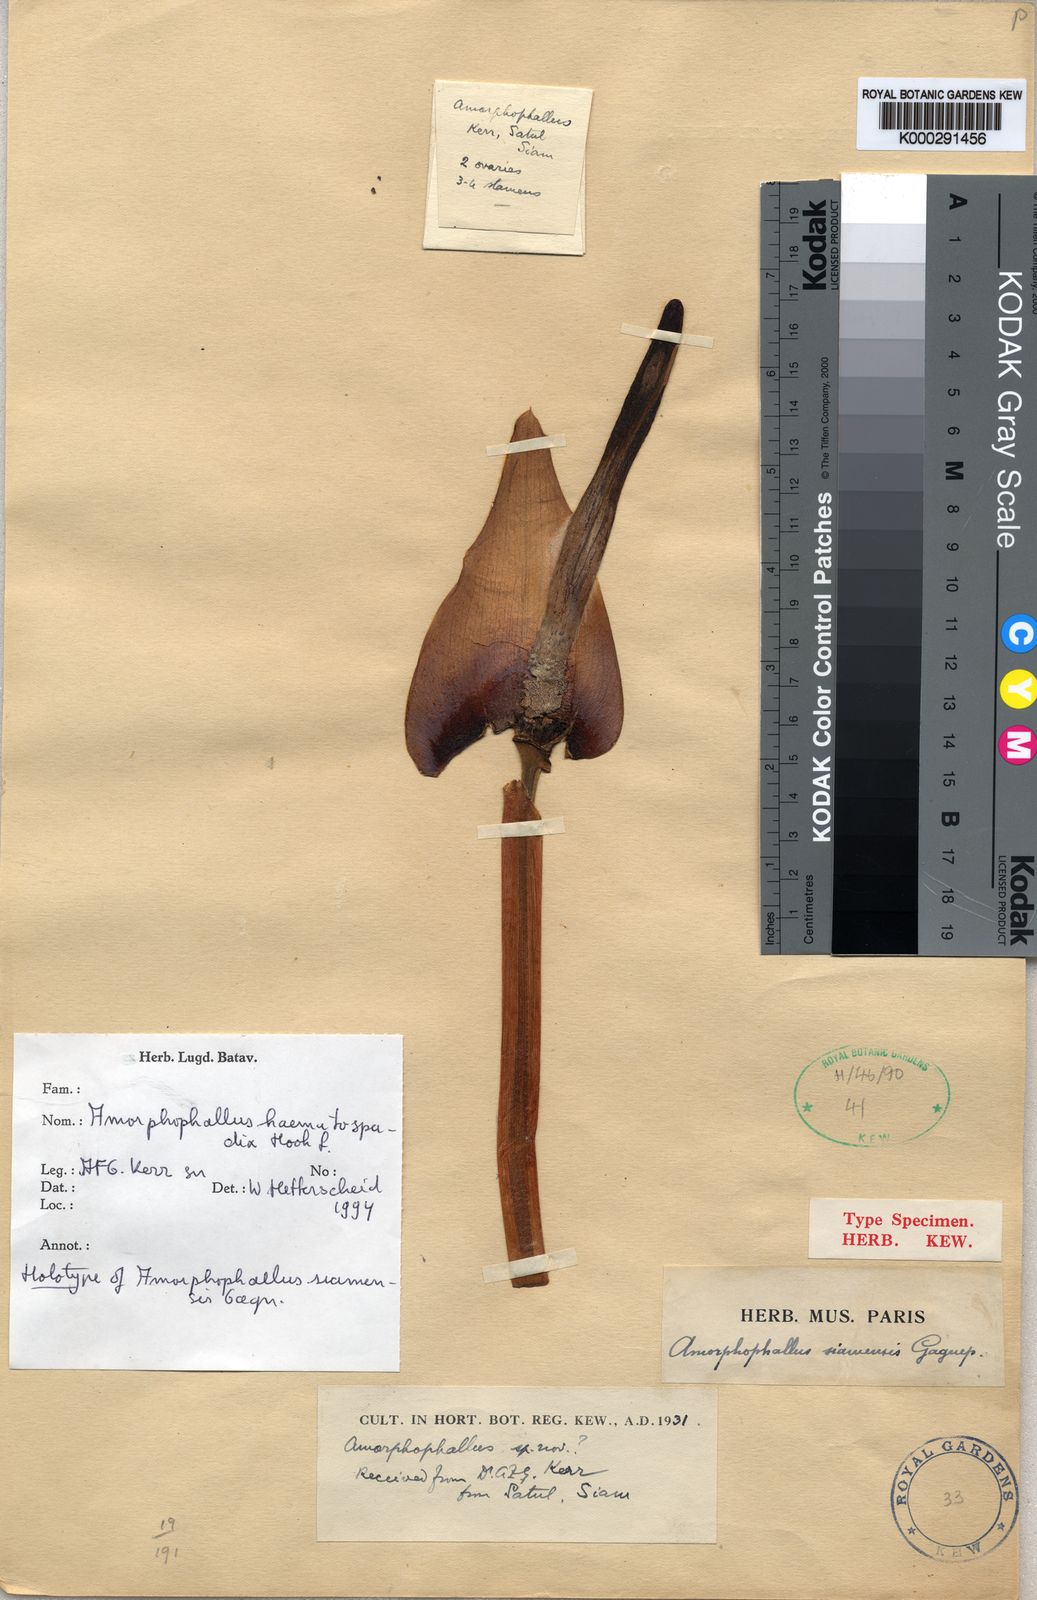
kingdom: Plantae
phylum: Tracheophyta
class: Liliopsida
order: Alismatales
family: Araceae
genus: Amorphophallus
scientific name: Amorphophallus haematospadix
